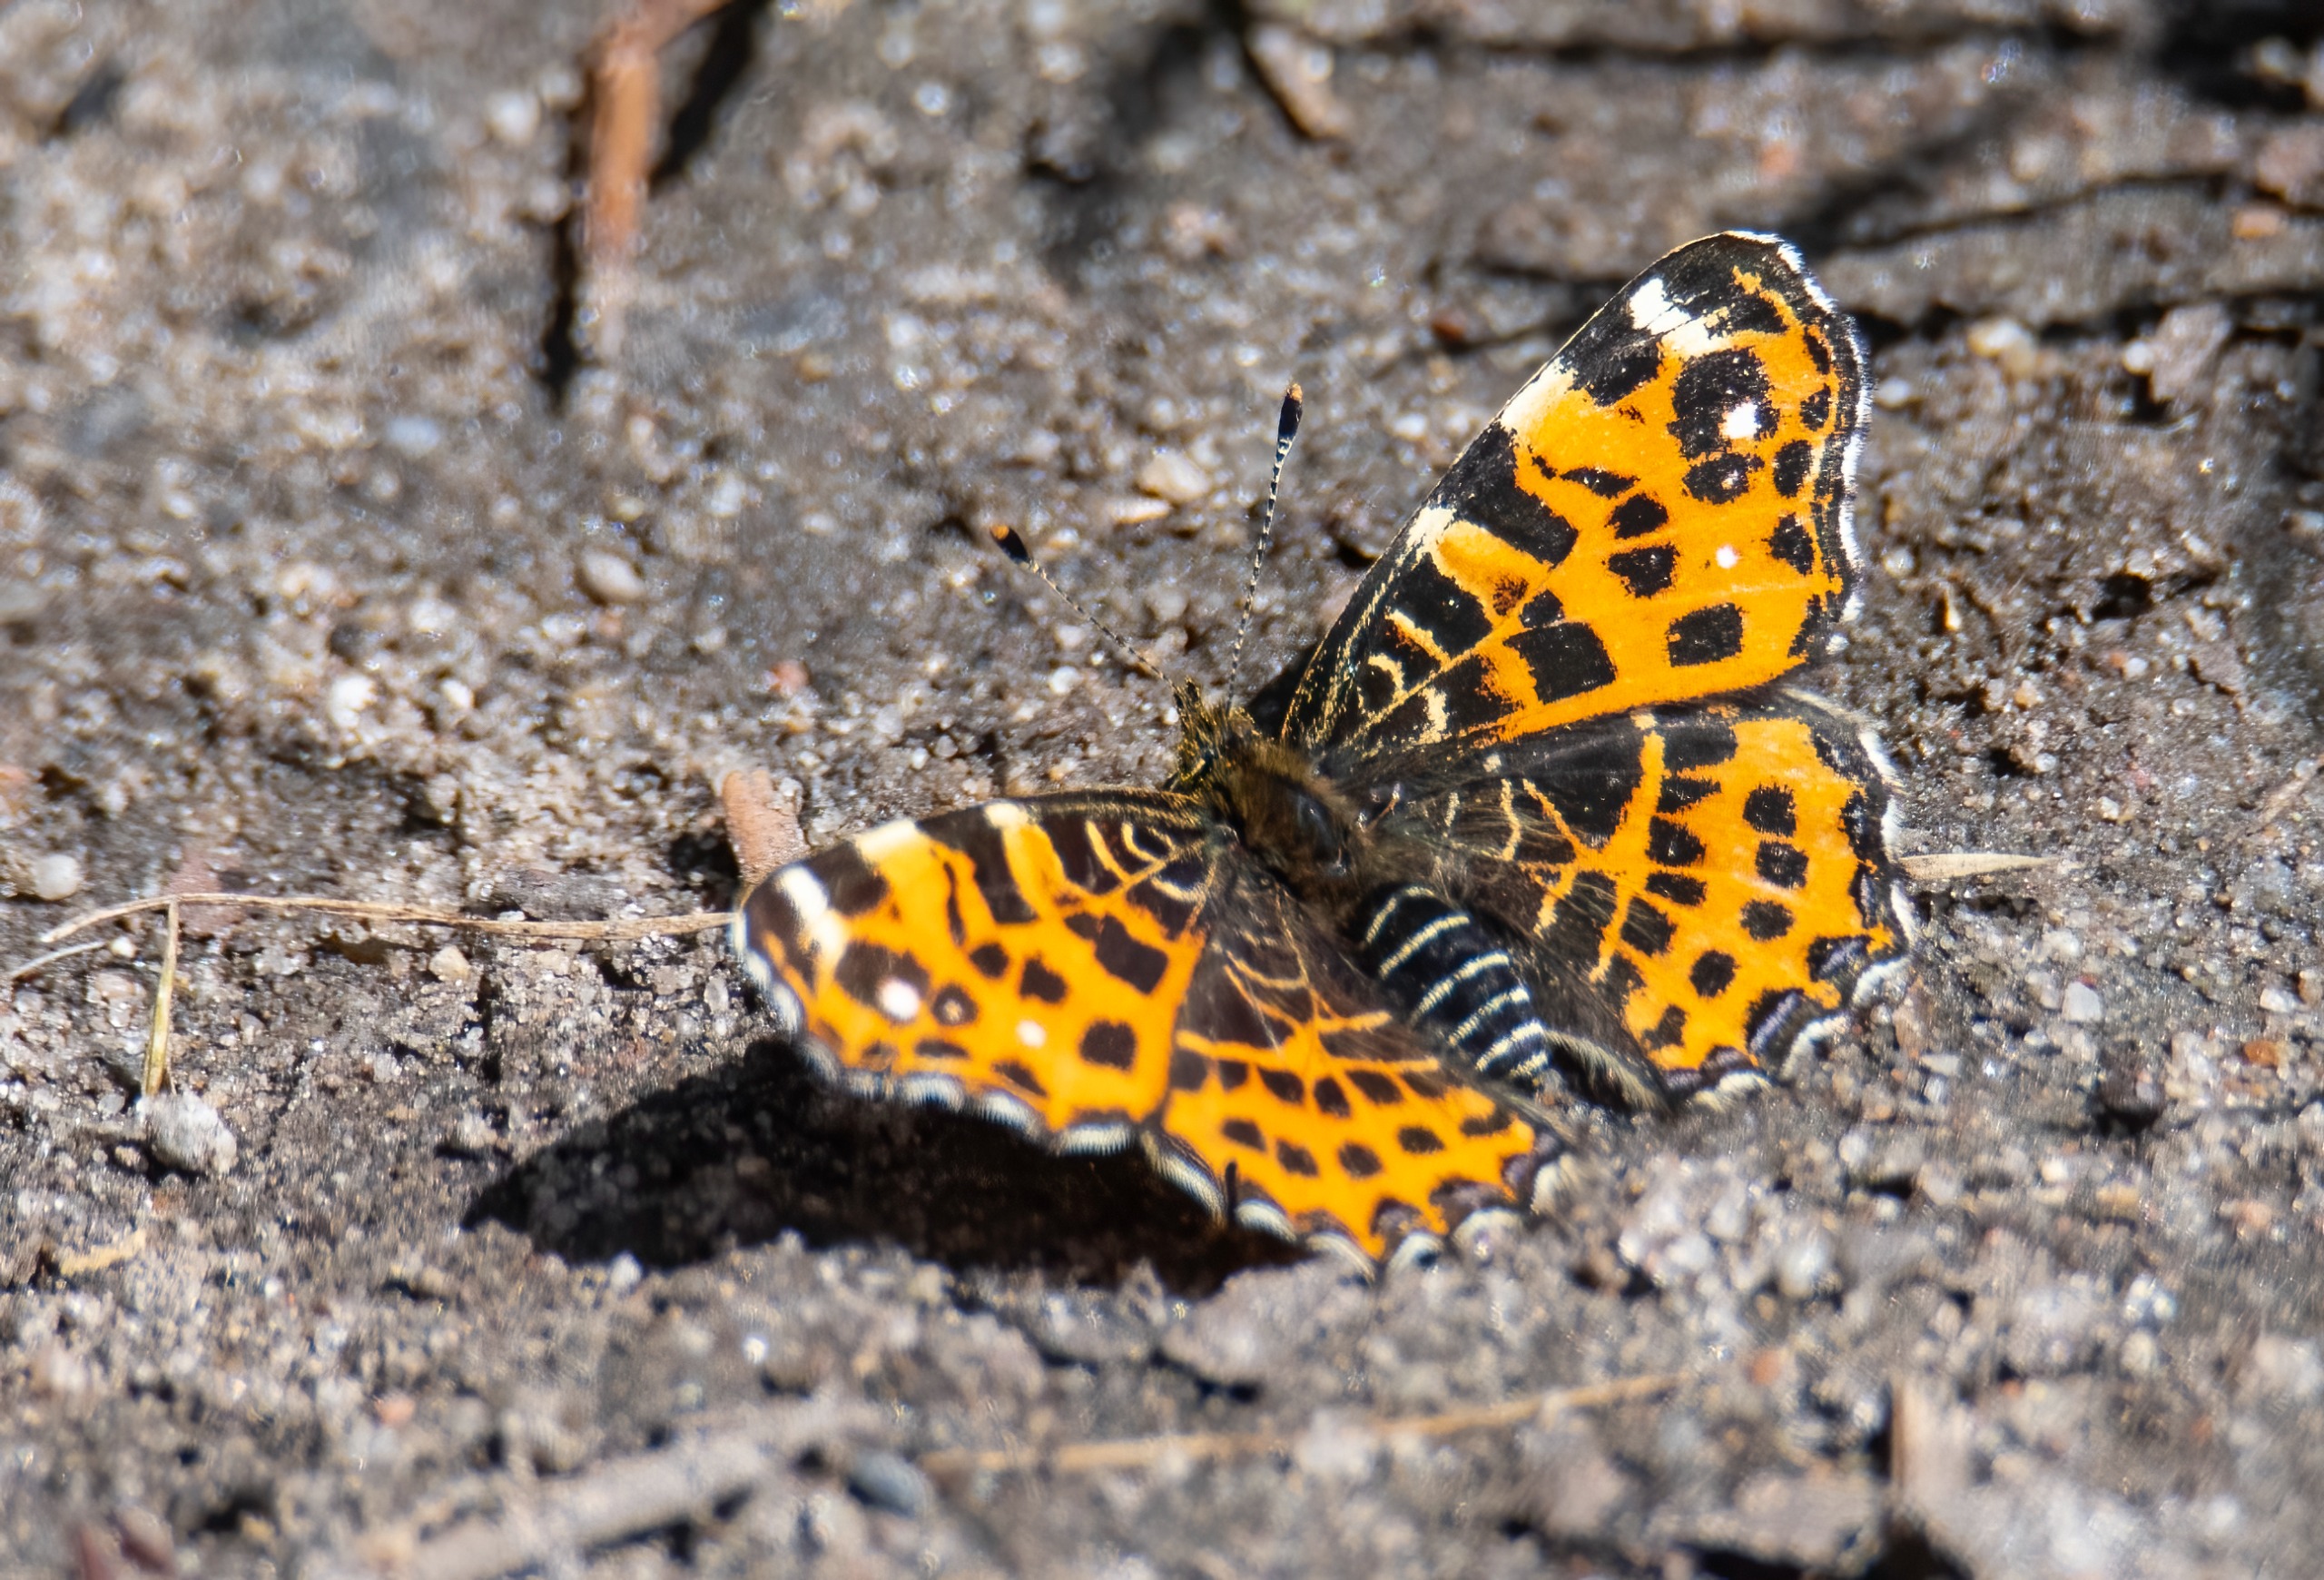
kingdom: Animalia
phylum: Arthropoda
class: Insecta
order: Lepidoptera
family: Nymphalidae
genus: Araschnia
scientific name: Araschnia levana
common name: Nældesommerfugl
